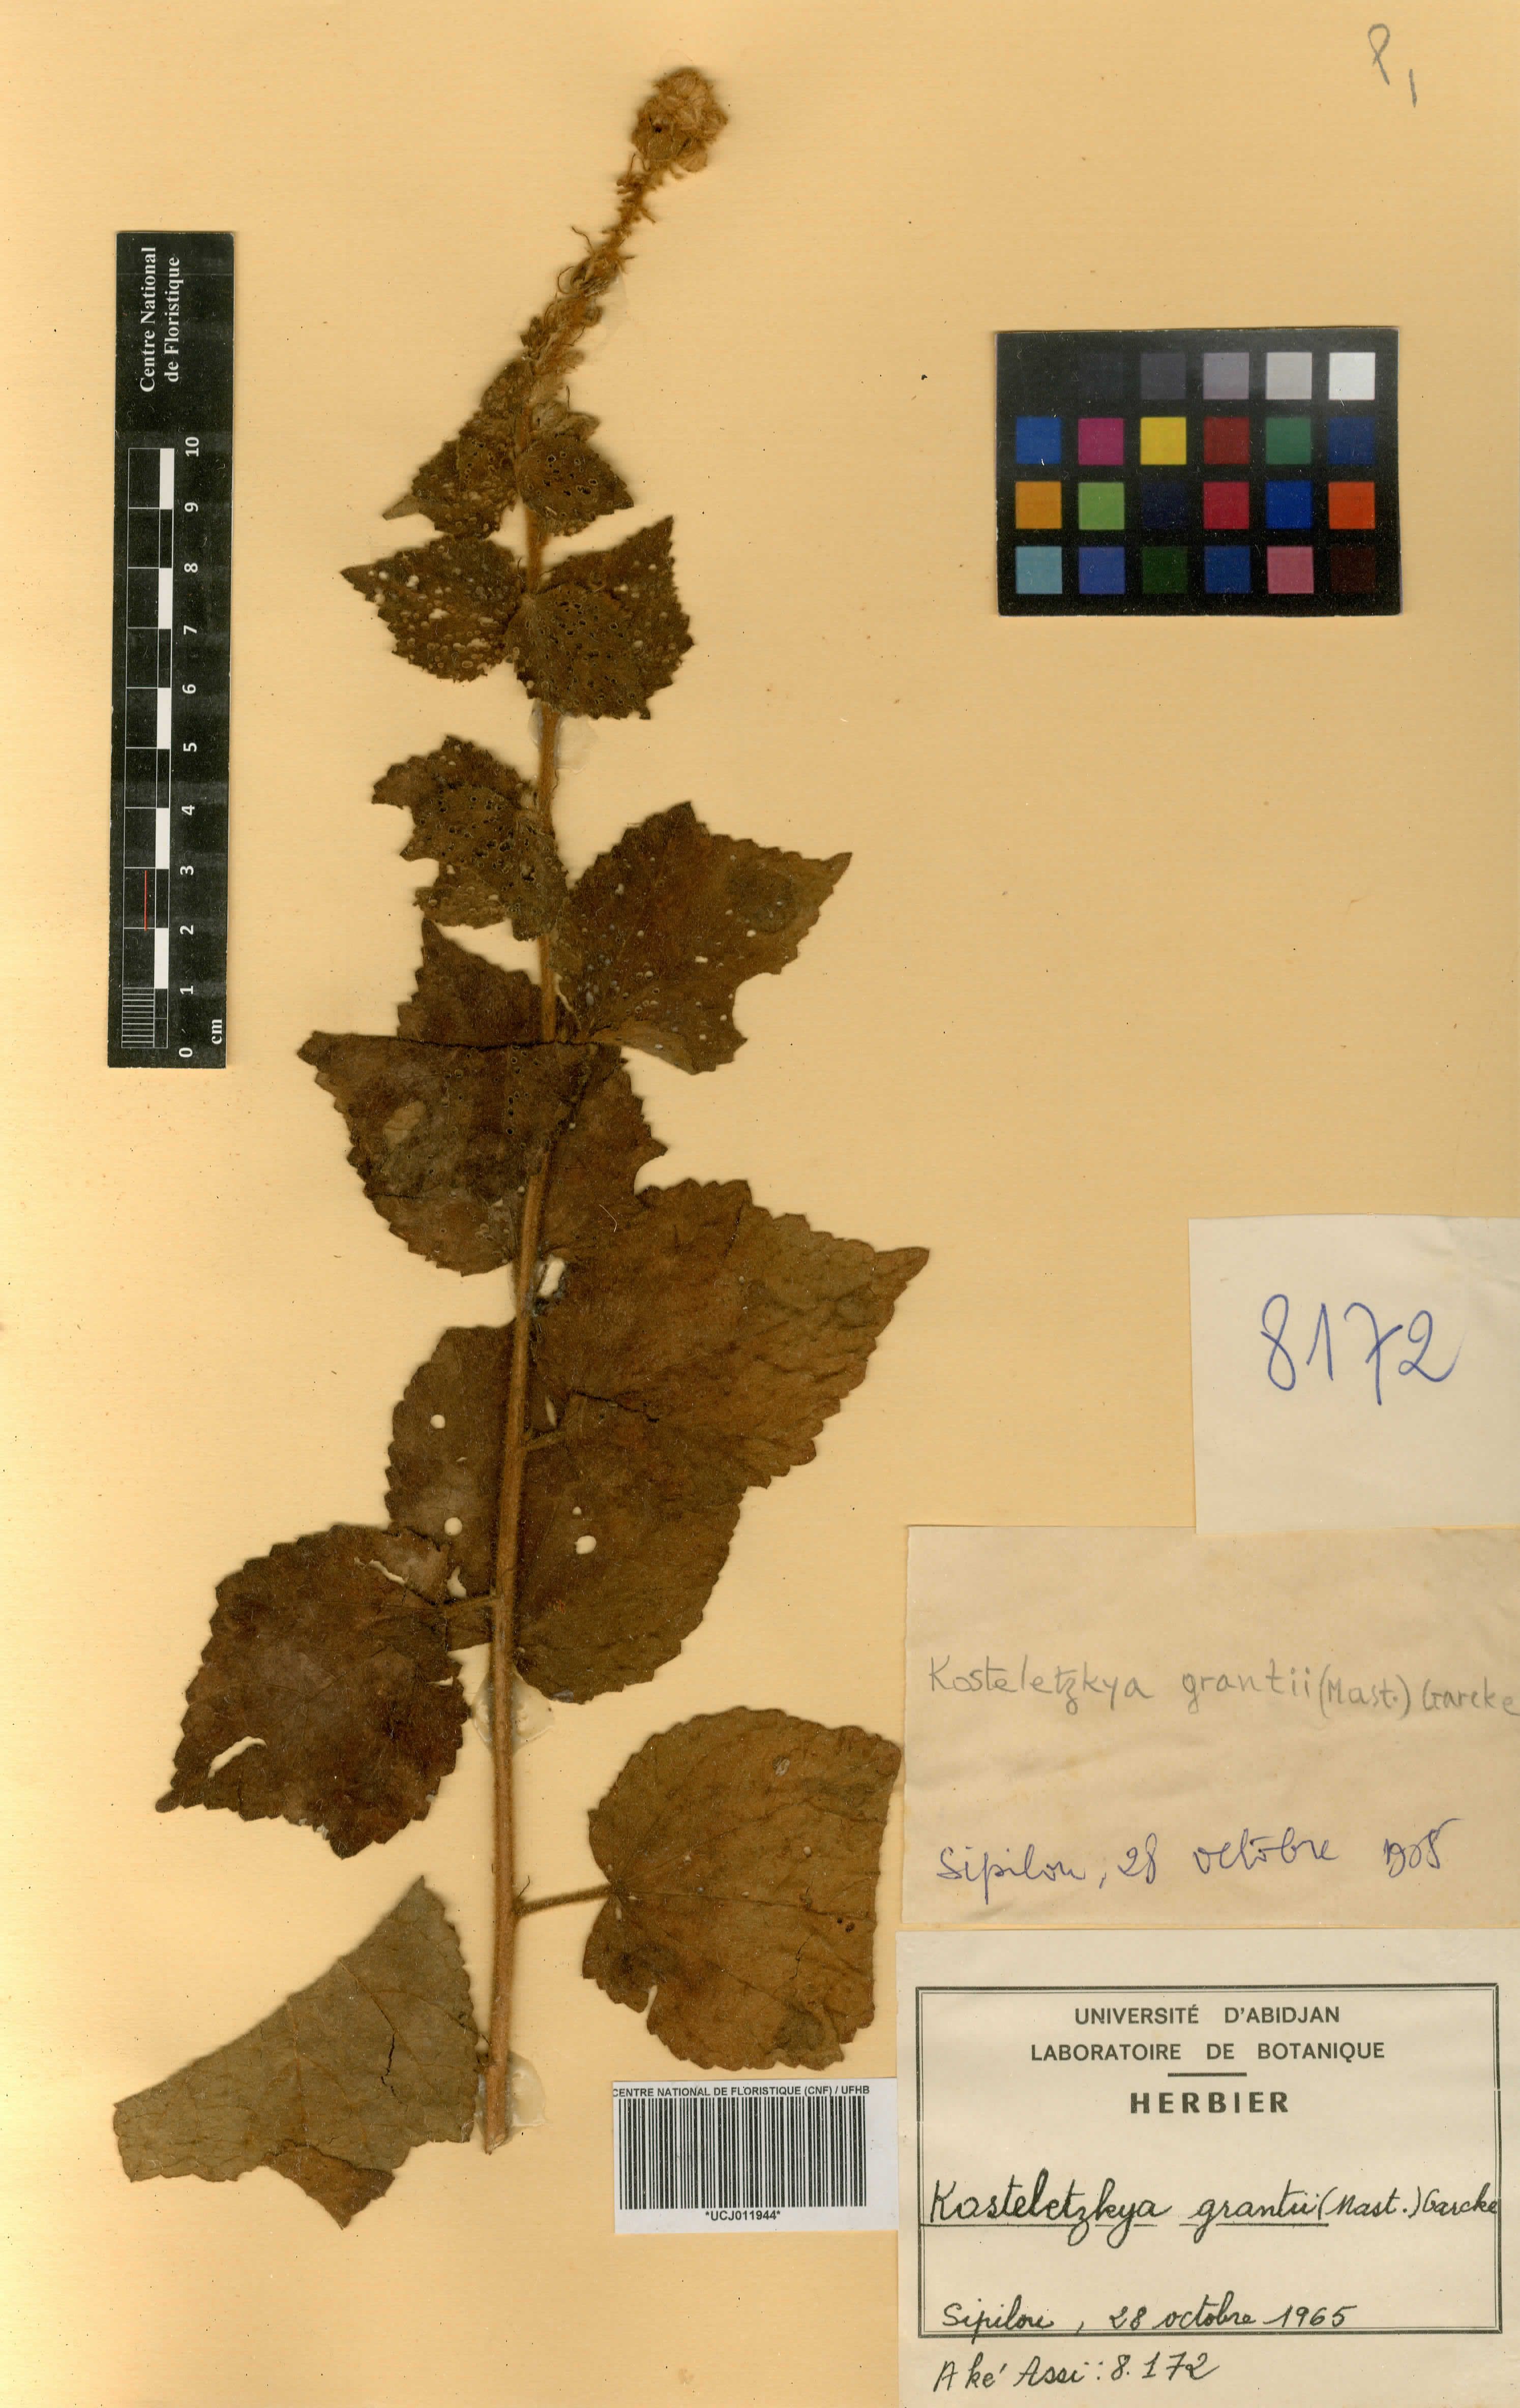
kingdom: Plantae
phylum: Tracheophyta
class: Magnoliopsida
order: Malvales
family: Malvaceae
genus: Kosteletzkya
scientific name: Kosteletzkya grantii
